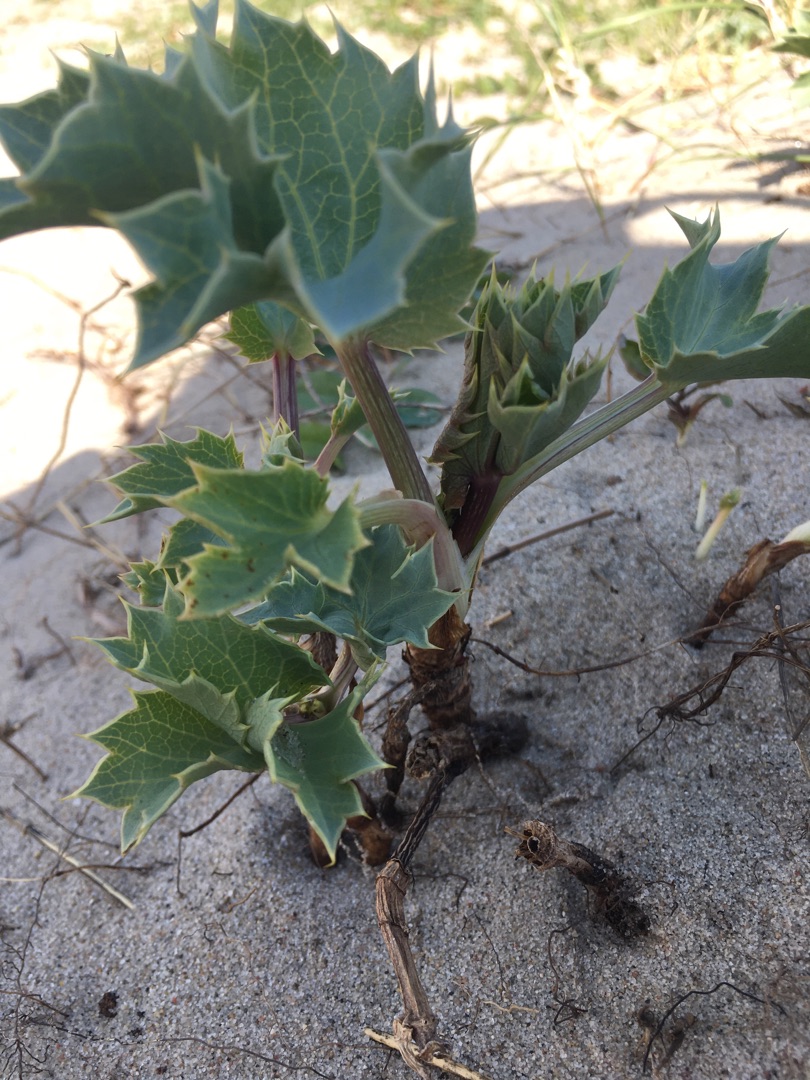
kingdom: Plantae
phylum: Tracheophyta
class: Magnoliopsida
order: Apiales
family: Apiaceae
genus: Eryngium
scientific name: Eryngium maritimum
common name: Strand-mandstro
